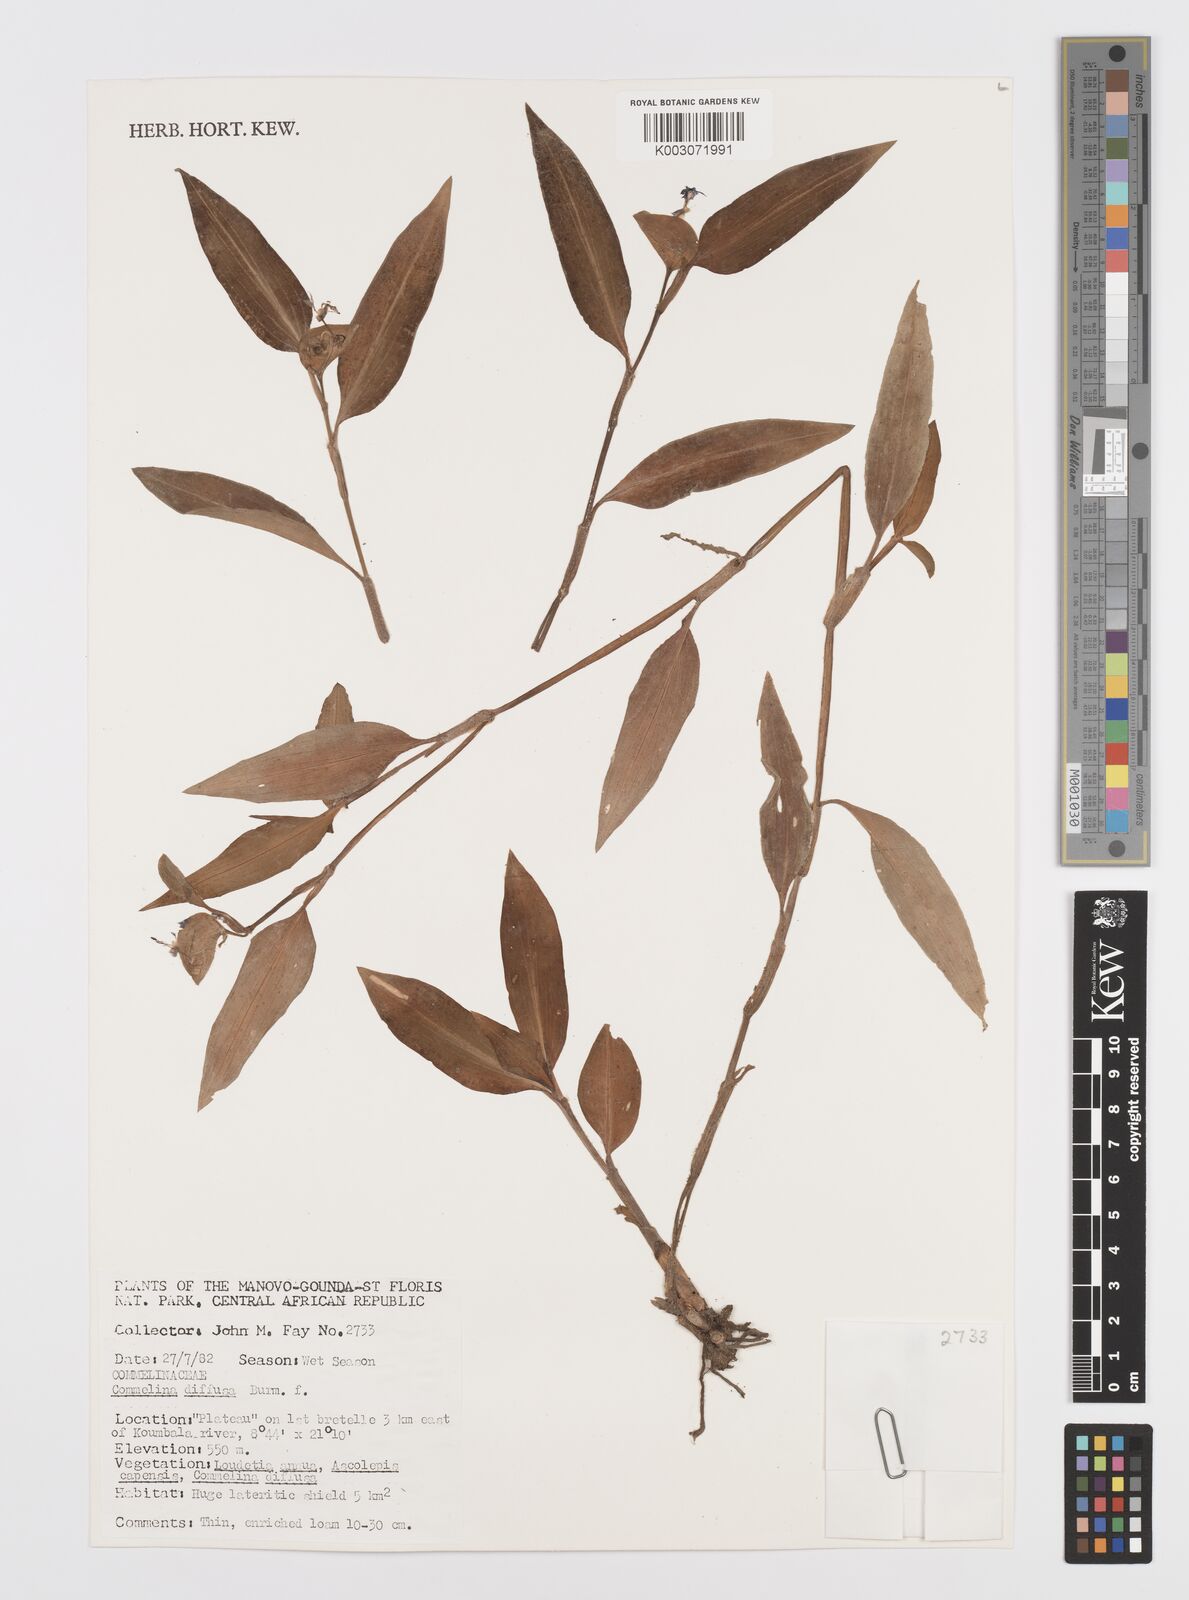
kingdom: Plantae
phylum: Tracheophyta
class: Liliopsida
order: Commelinales
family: Commelinaceae
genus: Commelina
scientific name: Commelina diffusa
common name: Climbing dayflower
